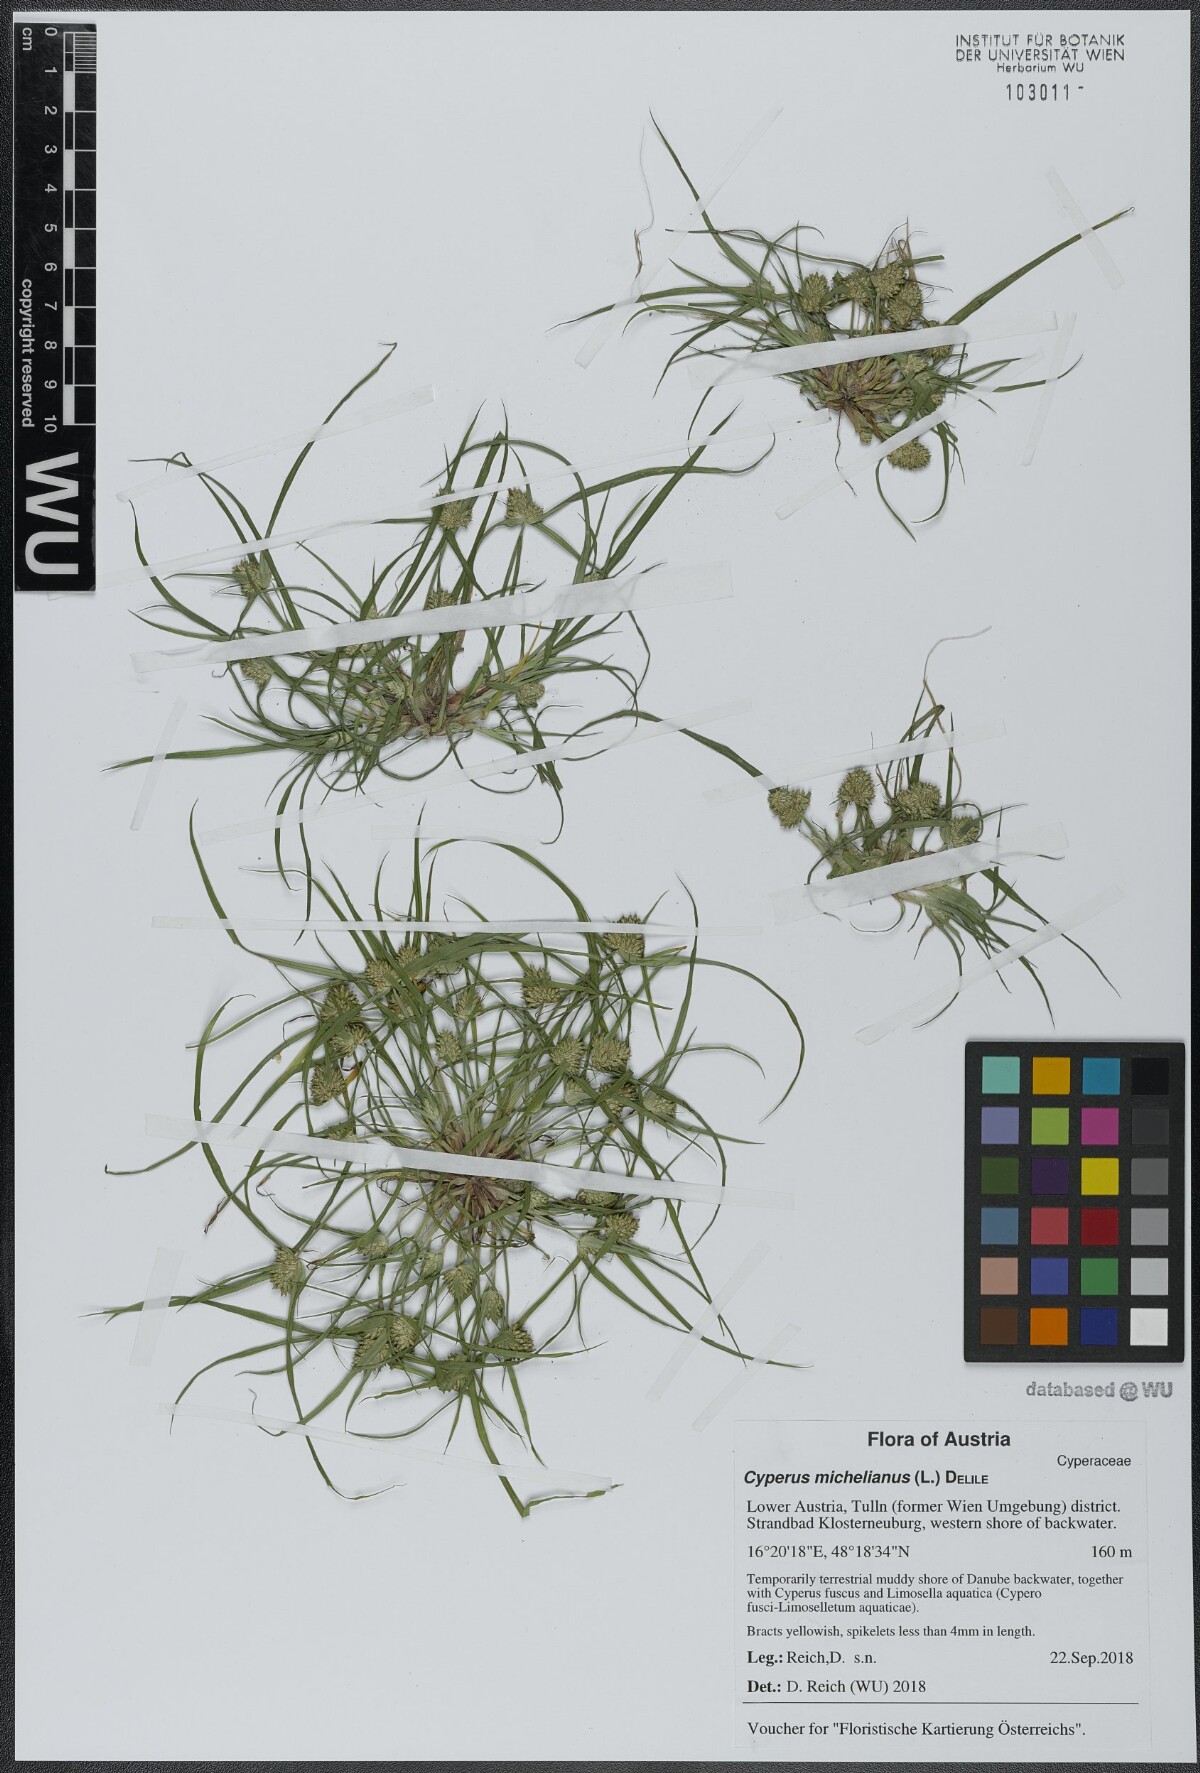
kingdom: Plantae
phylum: Tracheophyta
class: Liliopsida
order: Poales
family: Cyperaceae
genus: Cyperus
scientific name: Cyperus michelianus
